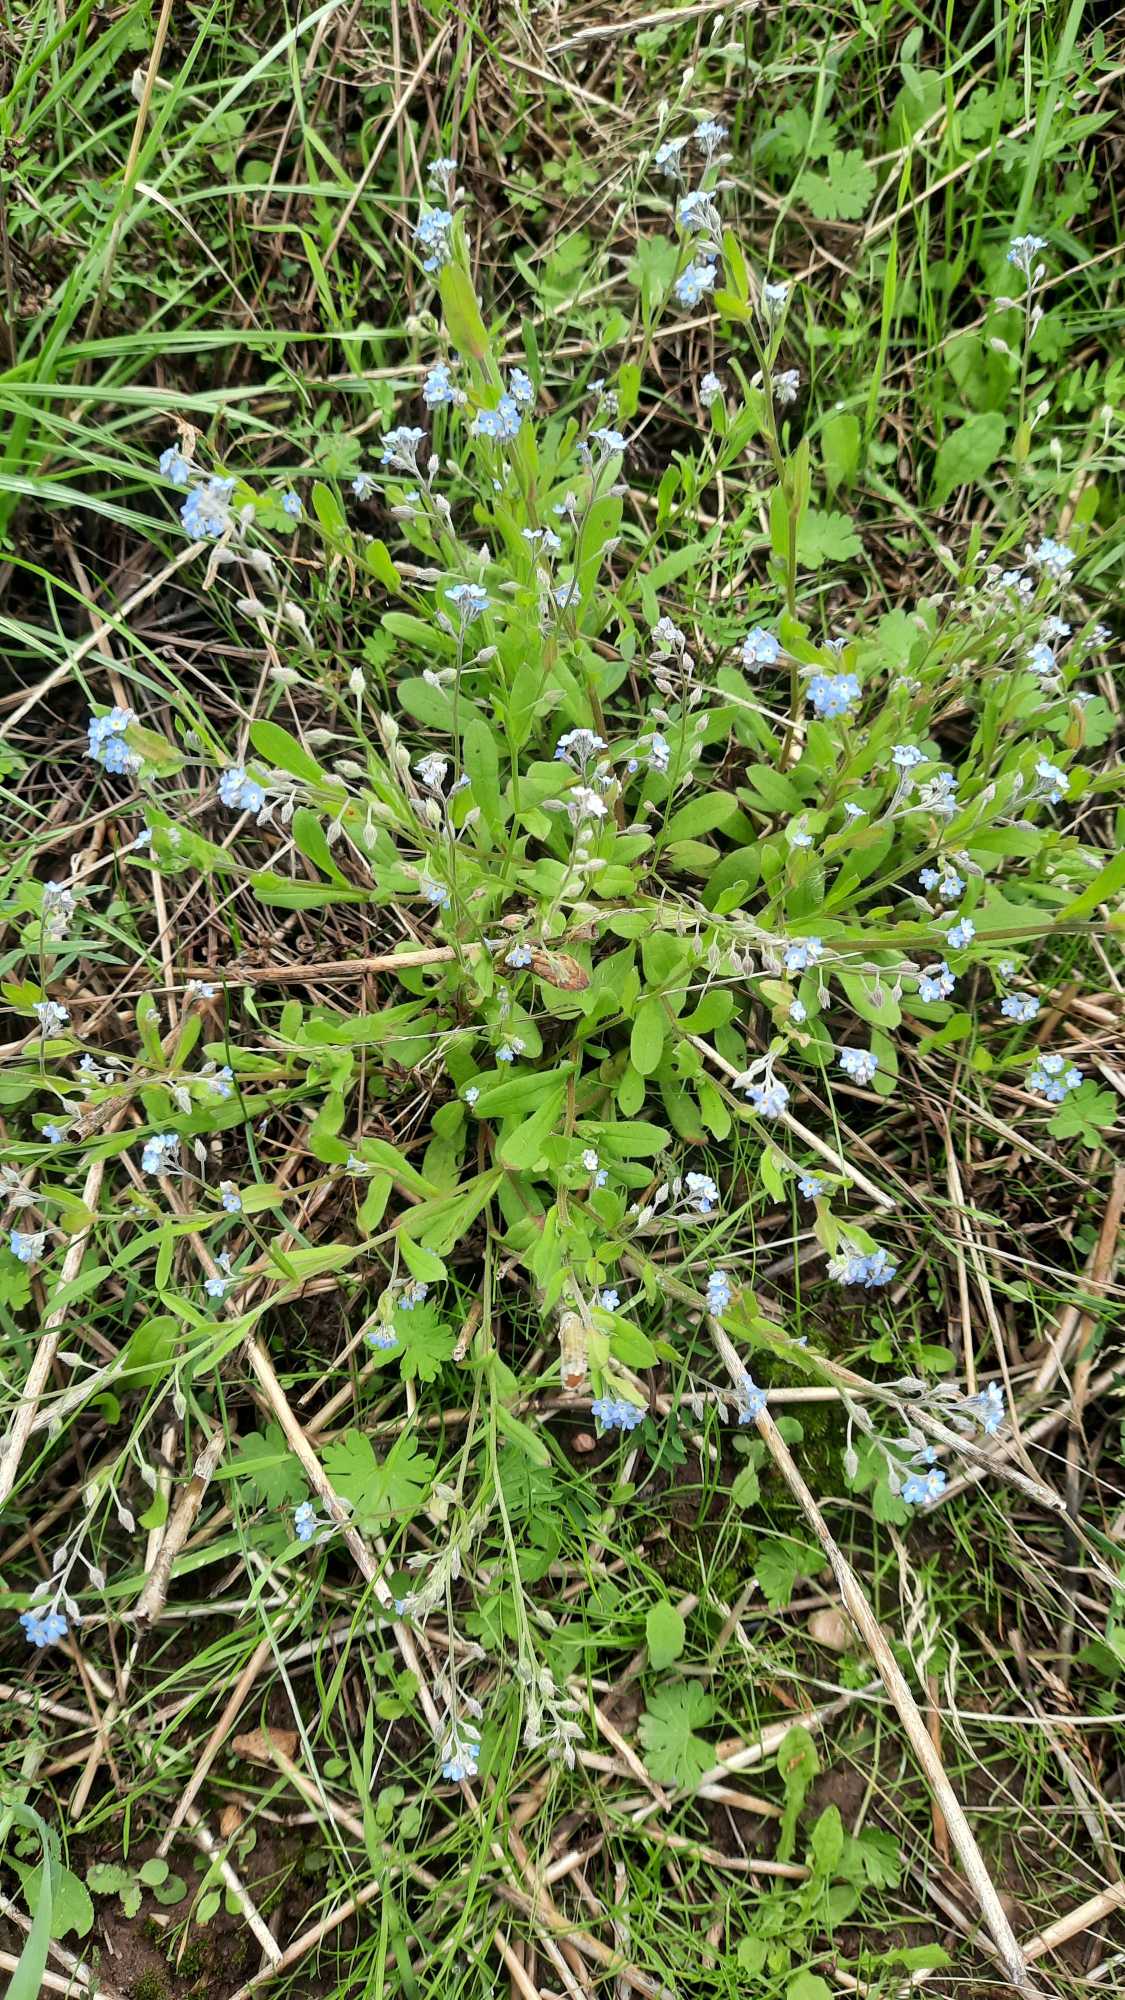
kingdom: Plantae
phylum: Tracheophyta
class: Magnoliopsida
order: Boraginales
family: Boraginaceae
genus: Myosotis
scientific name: Myosotis arvensis
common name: Mark-forglemmigej
